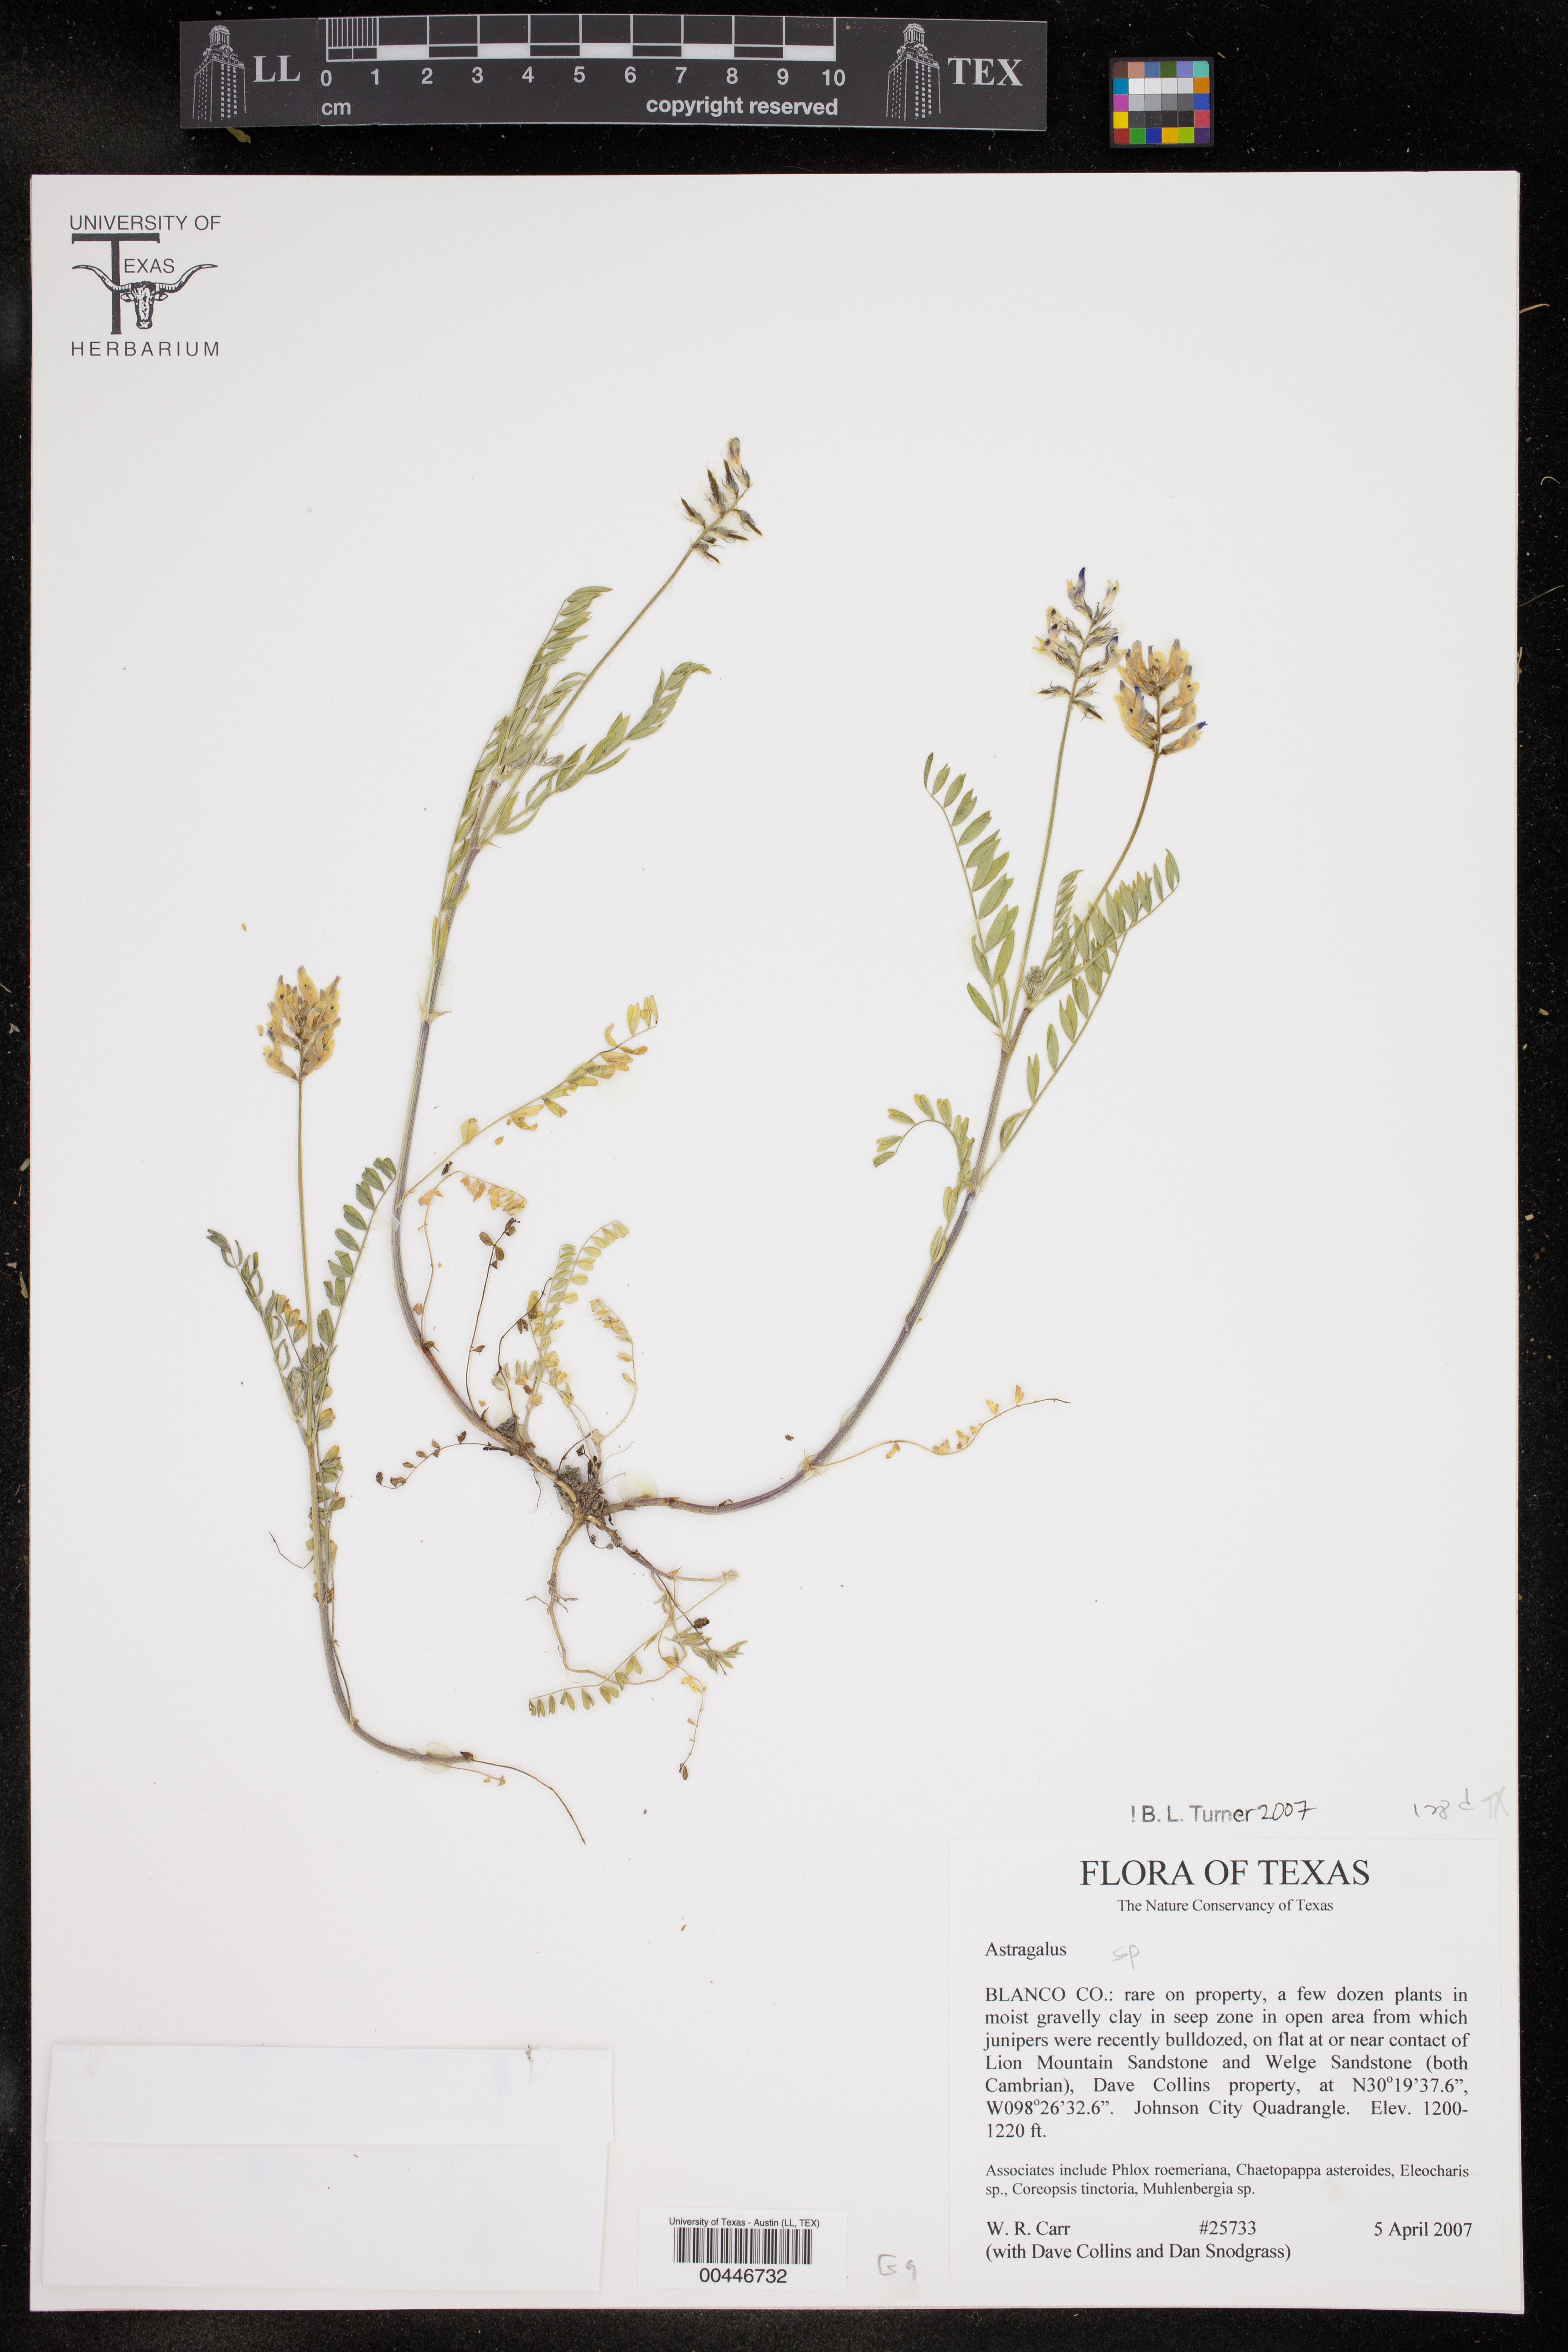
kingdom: Plantae
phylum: Tracheophyta
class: Magnoliopsida
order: Fabales
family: Fabaceae
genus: Astragalus
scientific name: Astragalus
